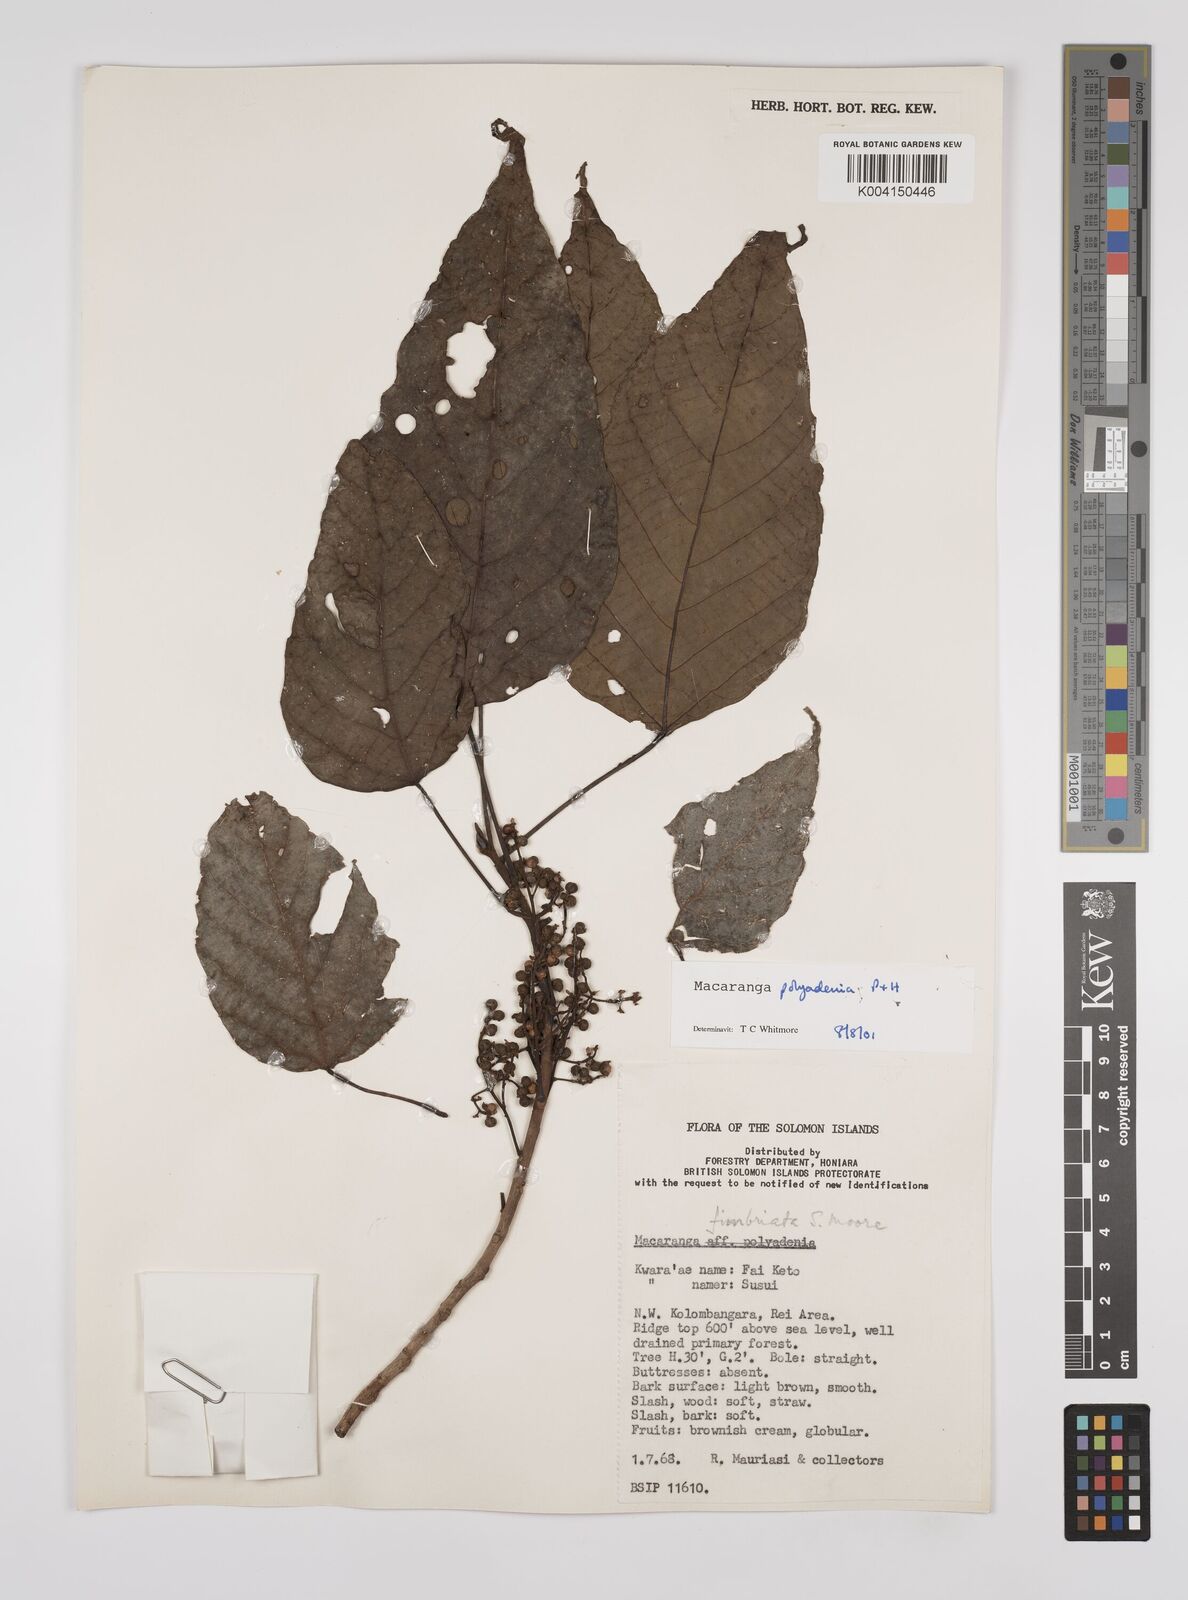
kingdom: Plantae
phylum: Tracheophyta
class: Magnoliopsida
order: Malpighiales
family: Euphorbiaceae
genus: Macaranga
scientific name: Macaranga polyadenia
